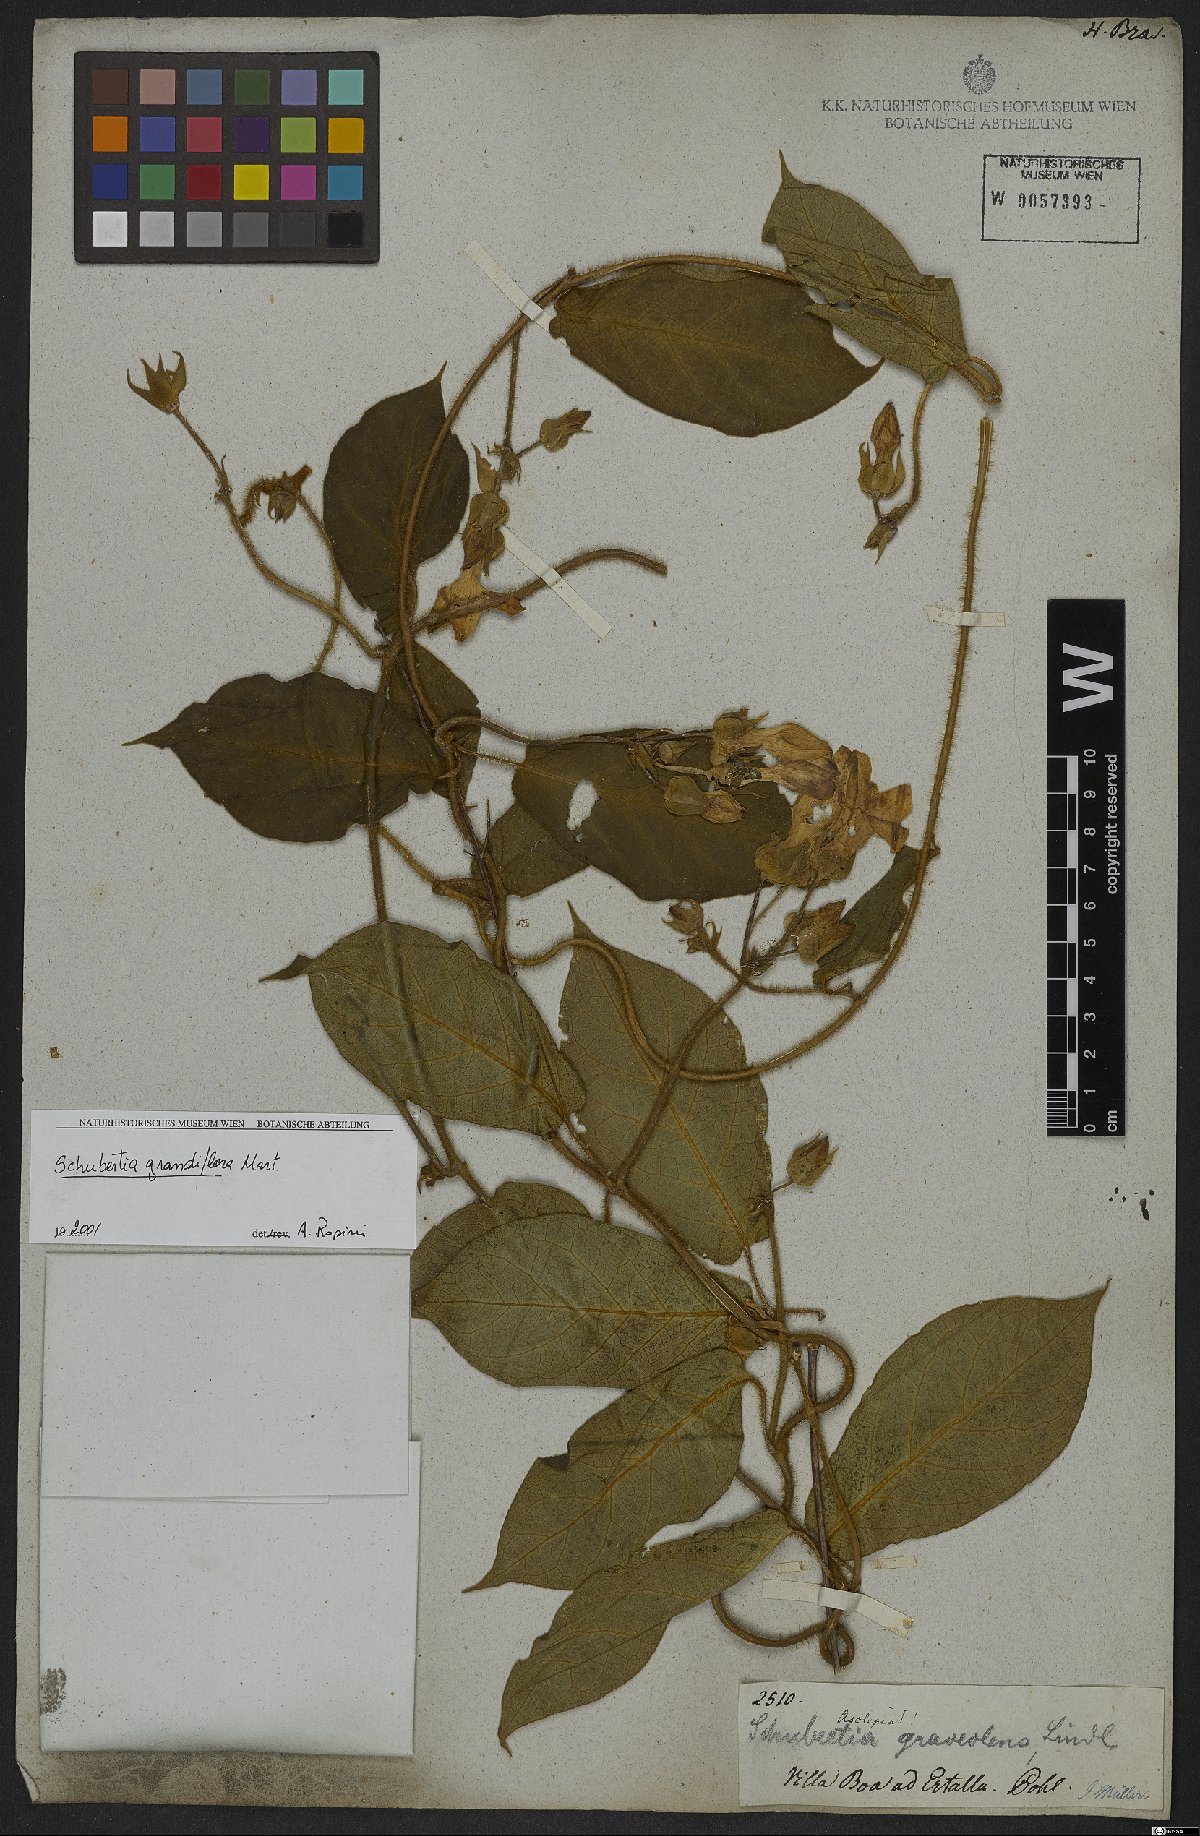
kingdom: Plantae
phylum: Tracheophyta
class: Magnoliopsida
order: Gentianales
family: Apocynaceae
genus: Schubertia
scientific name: Schubertia grandiflora
